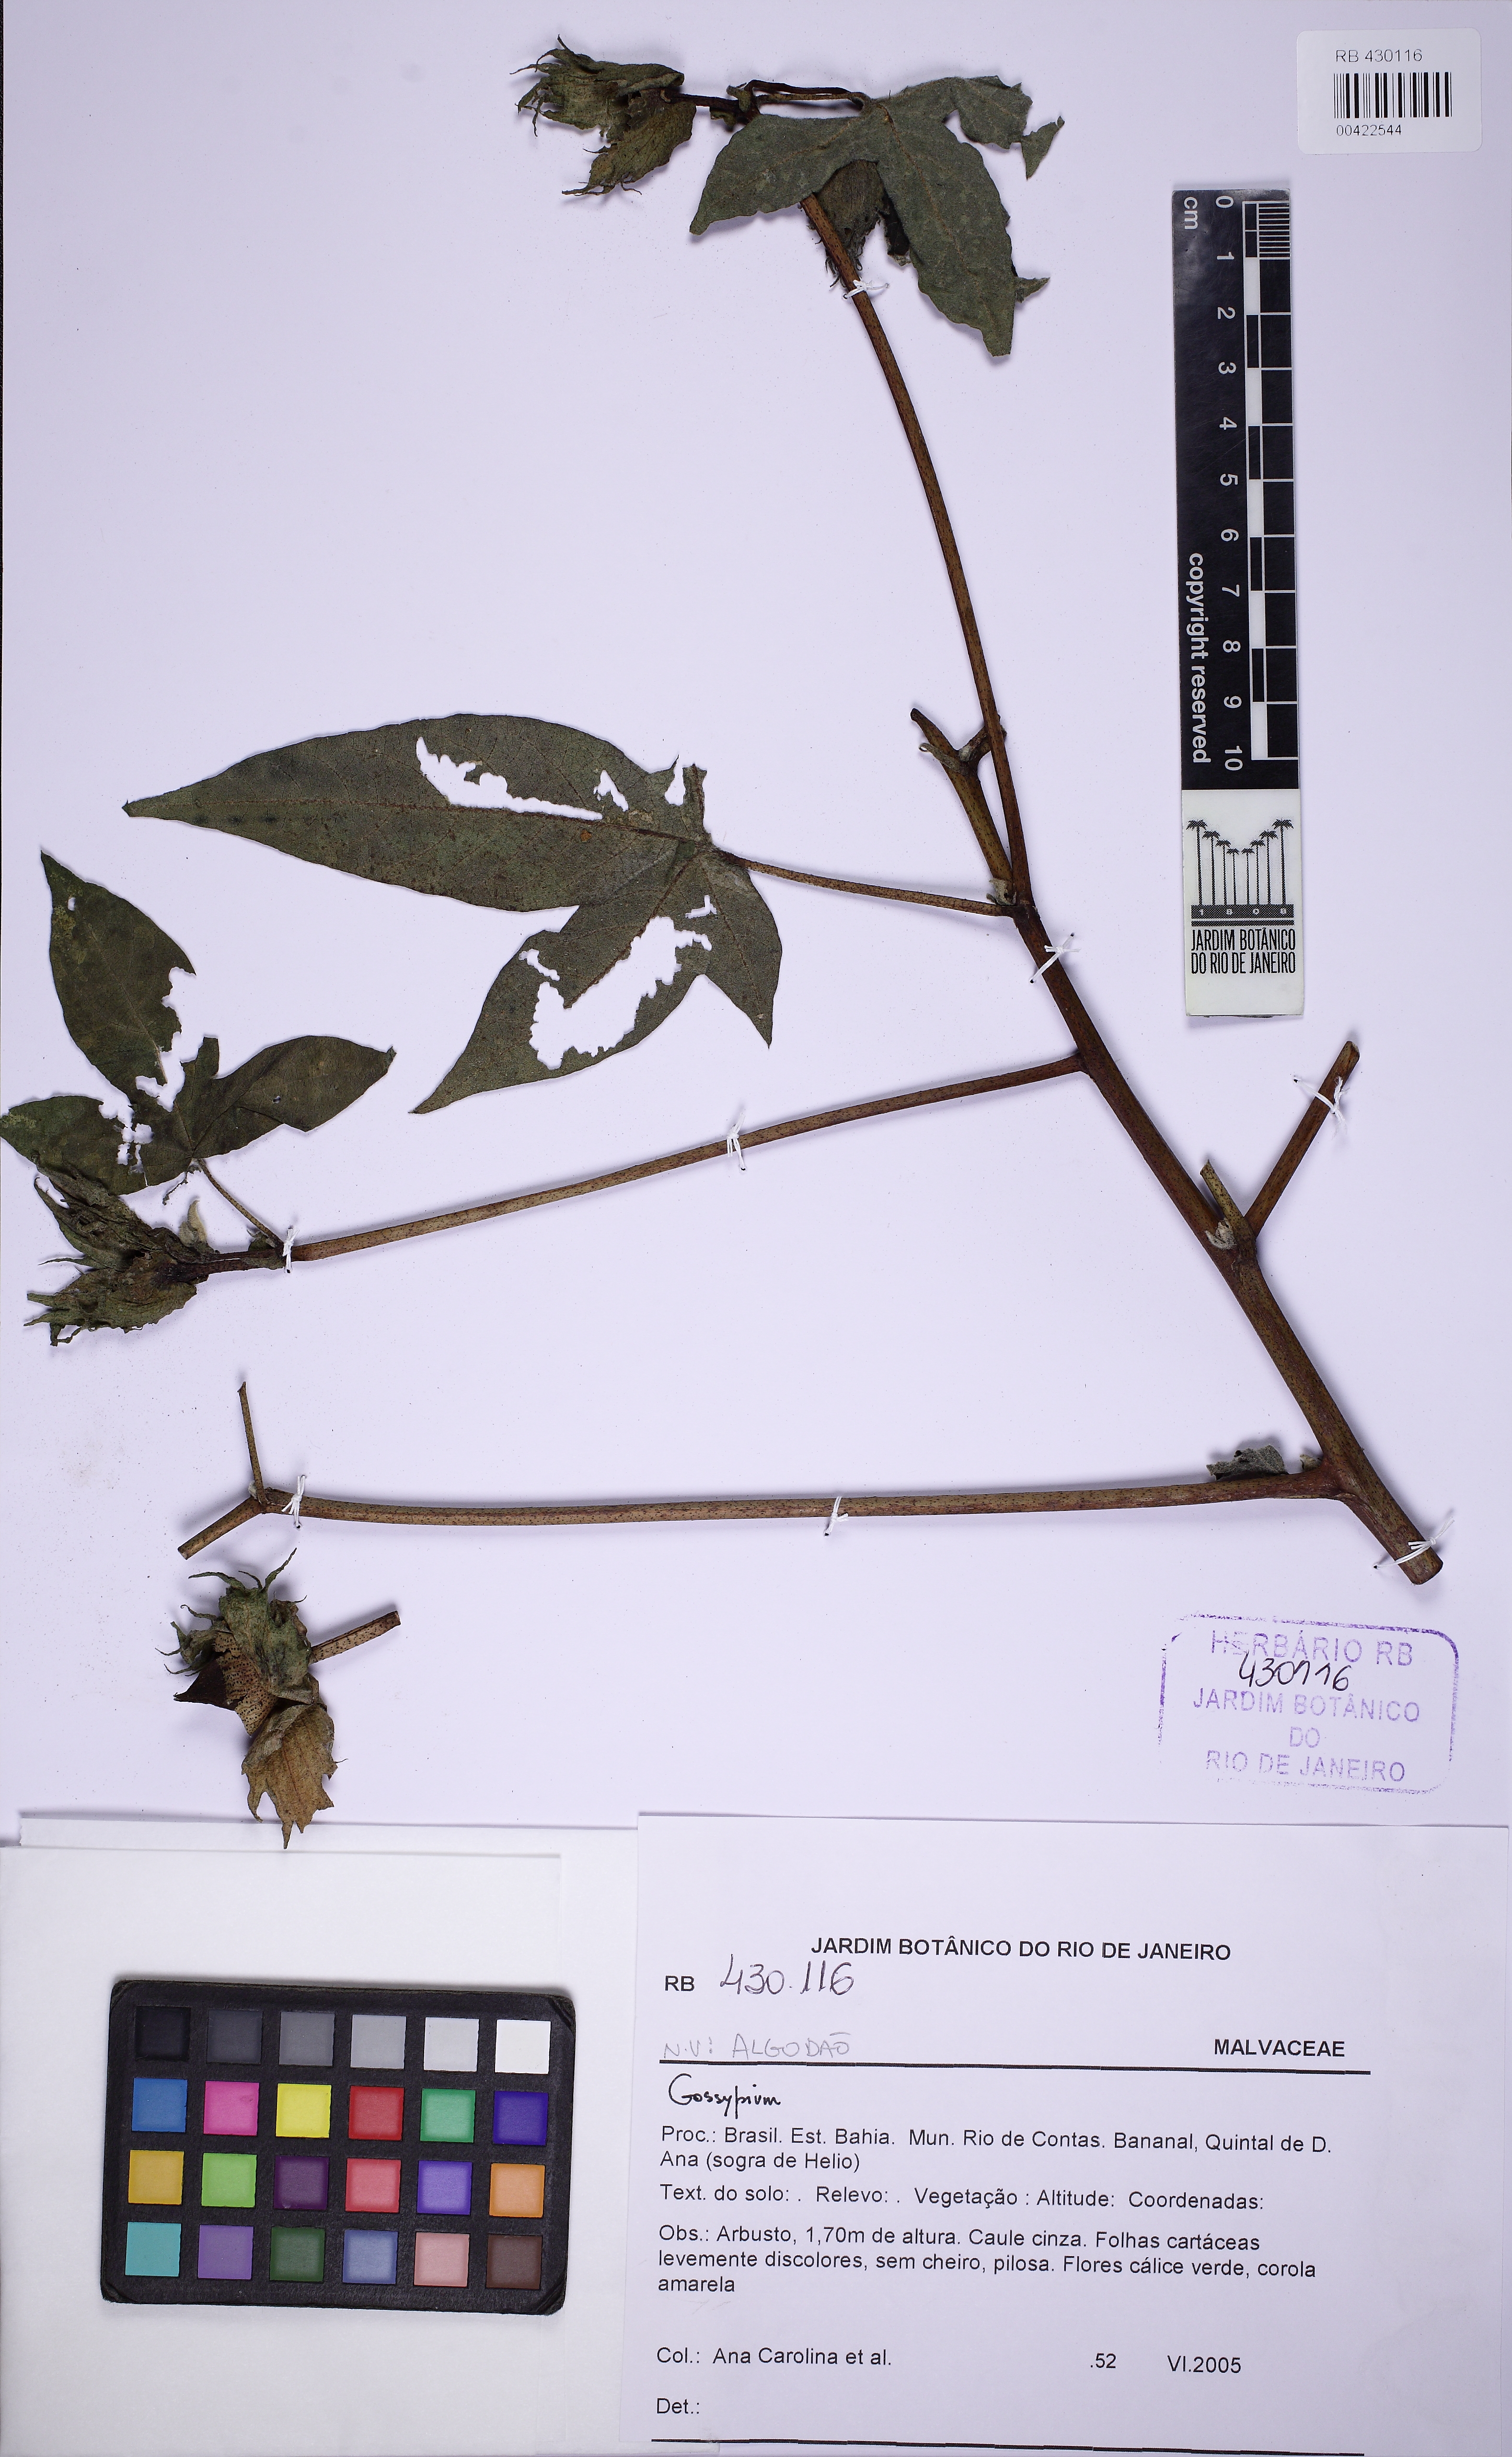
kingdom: Plantae
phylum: Tracheophyta
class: Magnoliopsida
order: Malvales
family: Malvaceae
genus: Gossypium
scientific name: Gossypium
